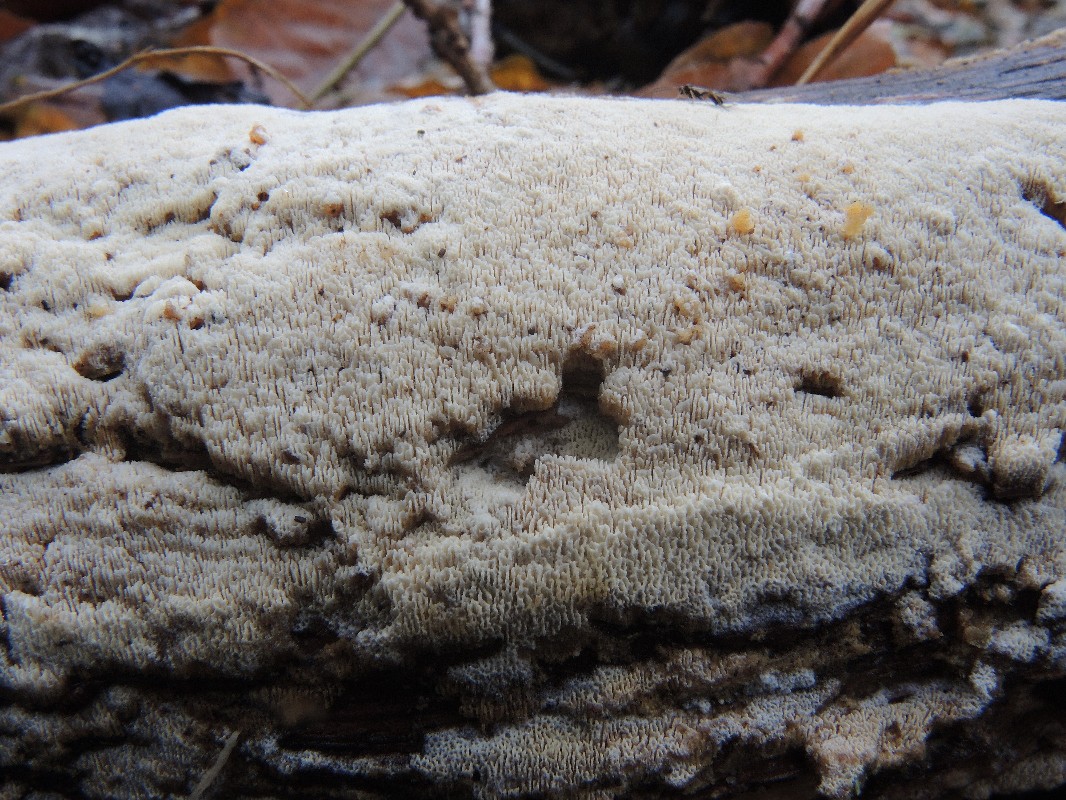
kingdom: Fungi
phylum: Basidiomycota
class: Agaricomycetes
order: Hymenochaetales
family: Schizoporaceae
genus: Schizopora
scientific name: Schizopora paradoxa
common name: hvid tandsvamp
